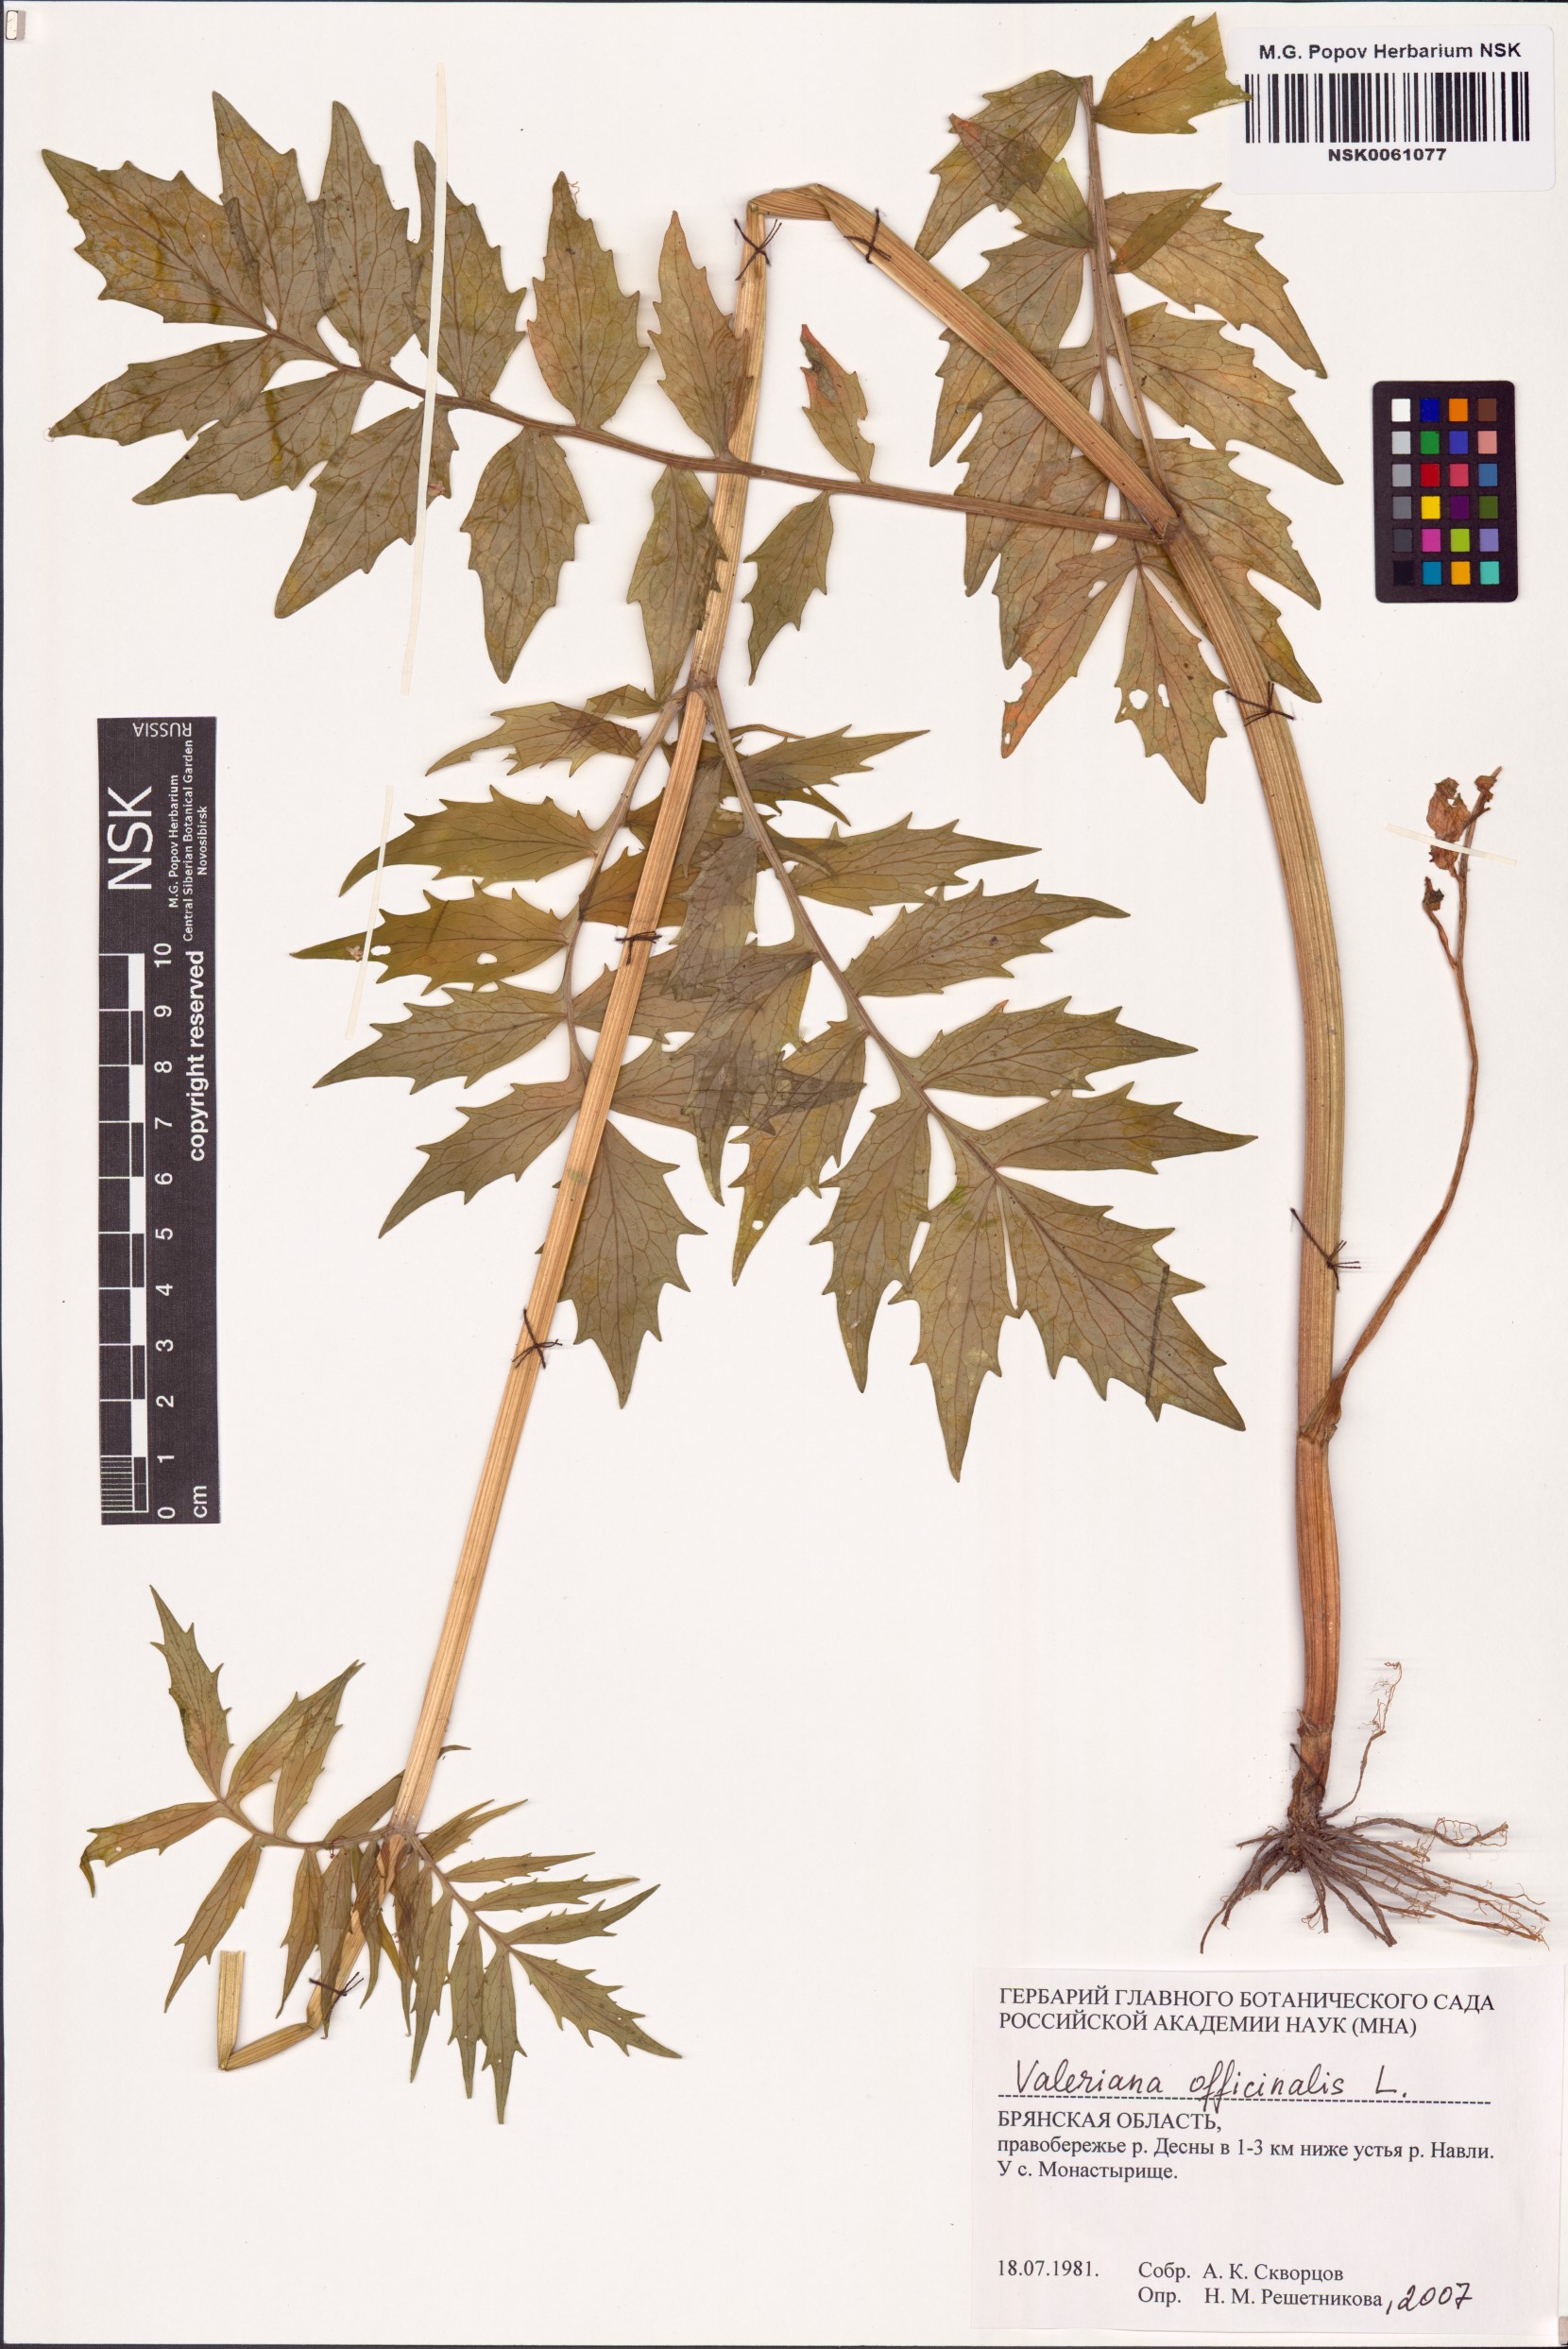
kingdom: Plantae
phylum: Tracheophyta
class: Magnoliopsida
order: Dipsacales
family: Caprifoliaceae
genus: Valeriana
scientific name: Valeriana officinalis
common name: Common valerian
